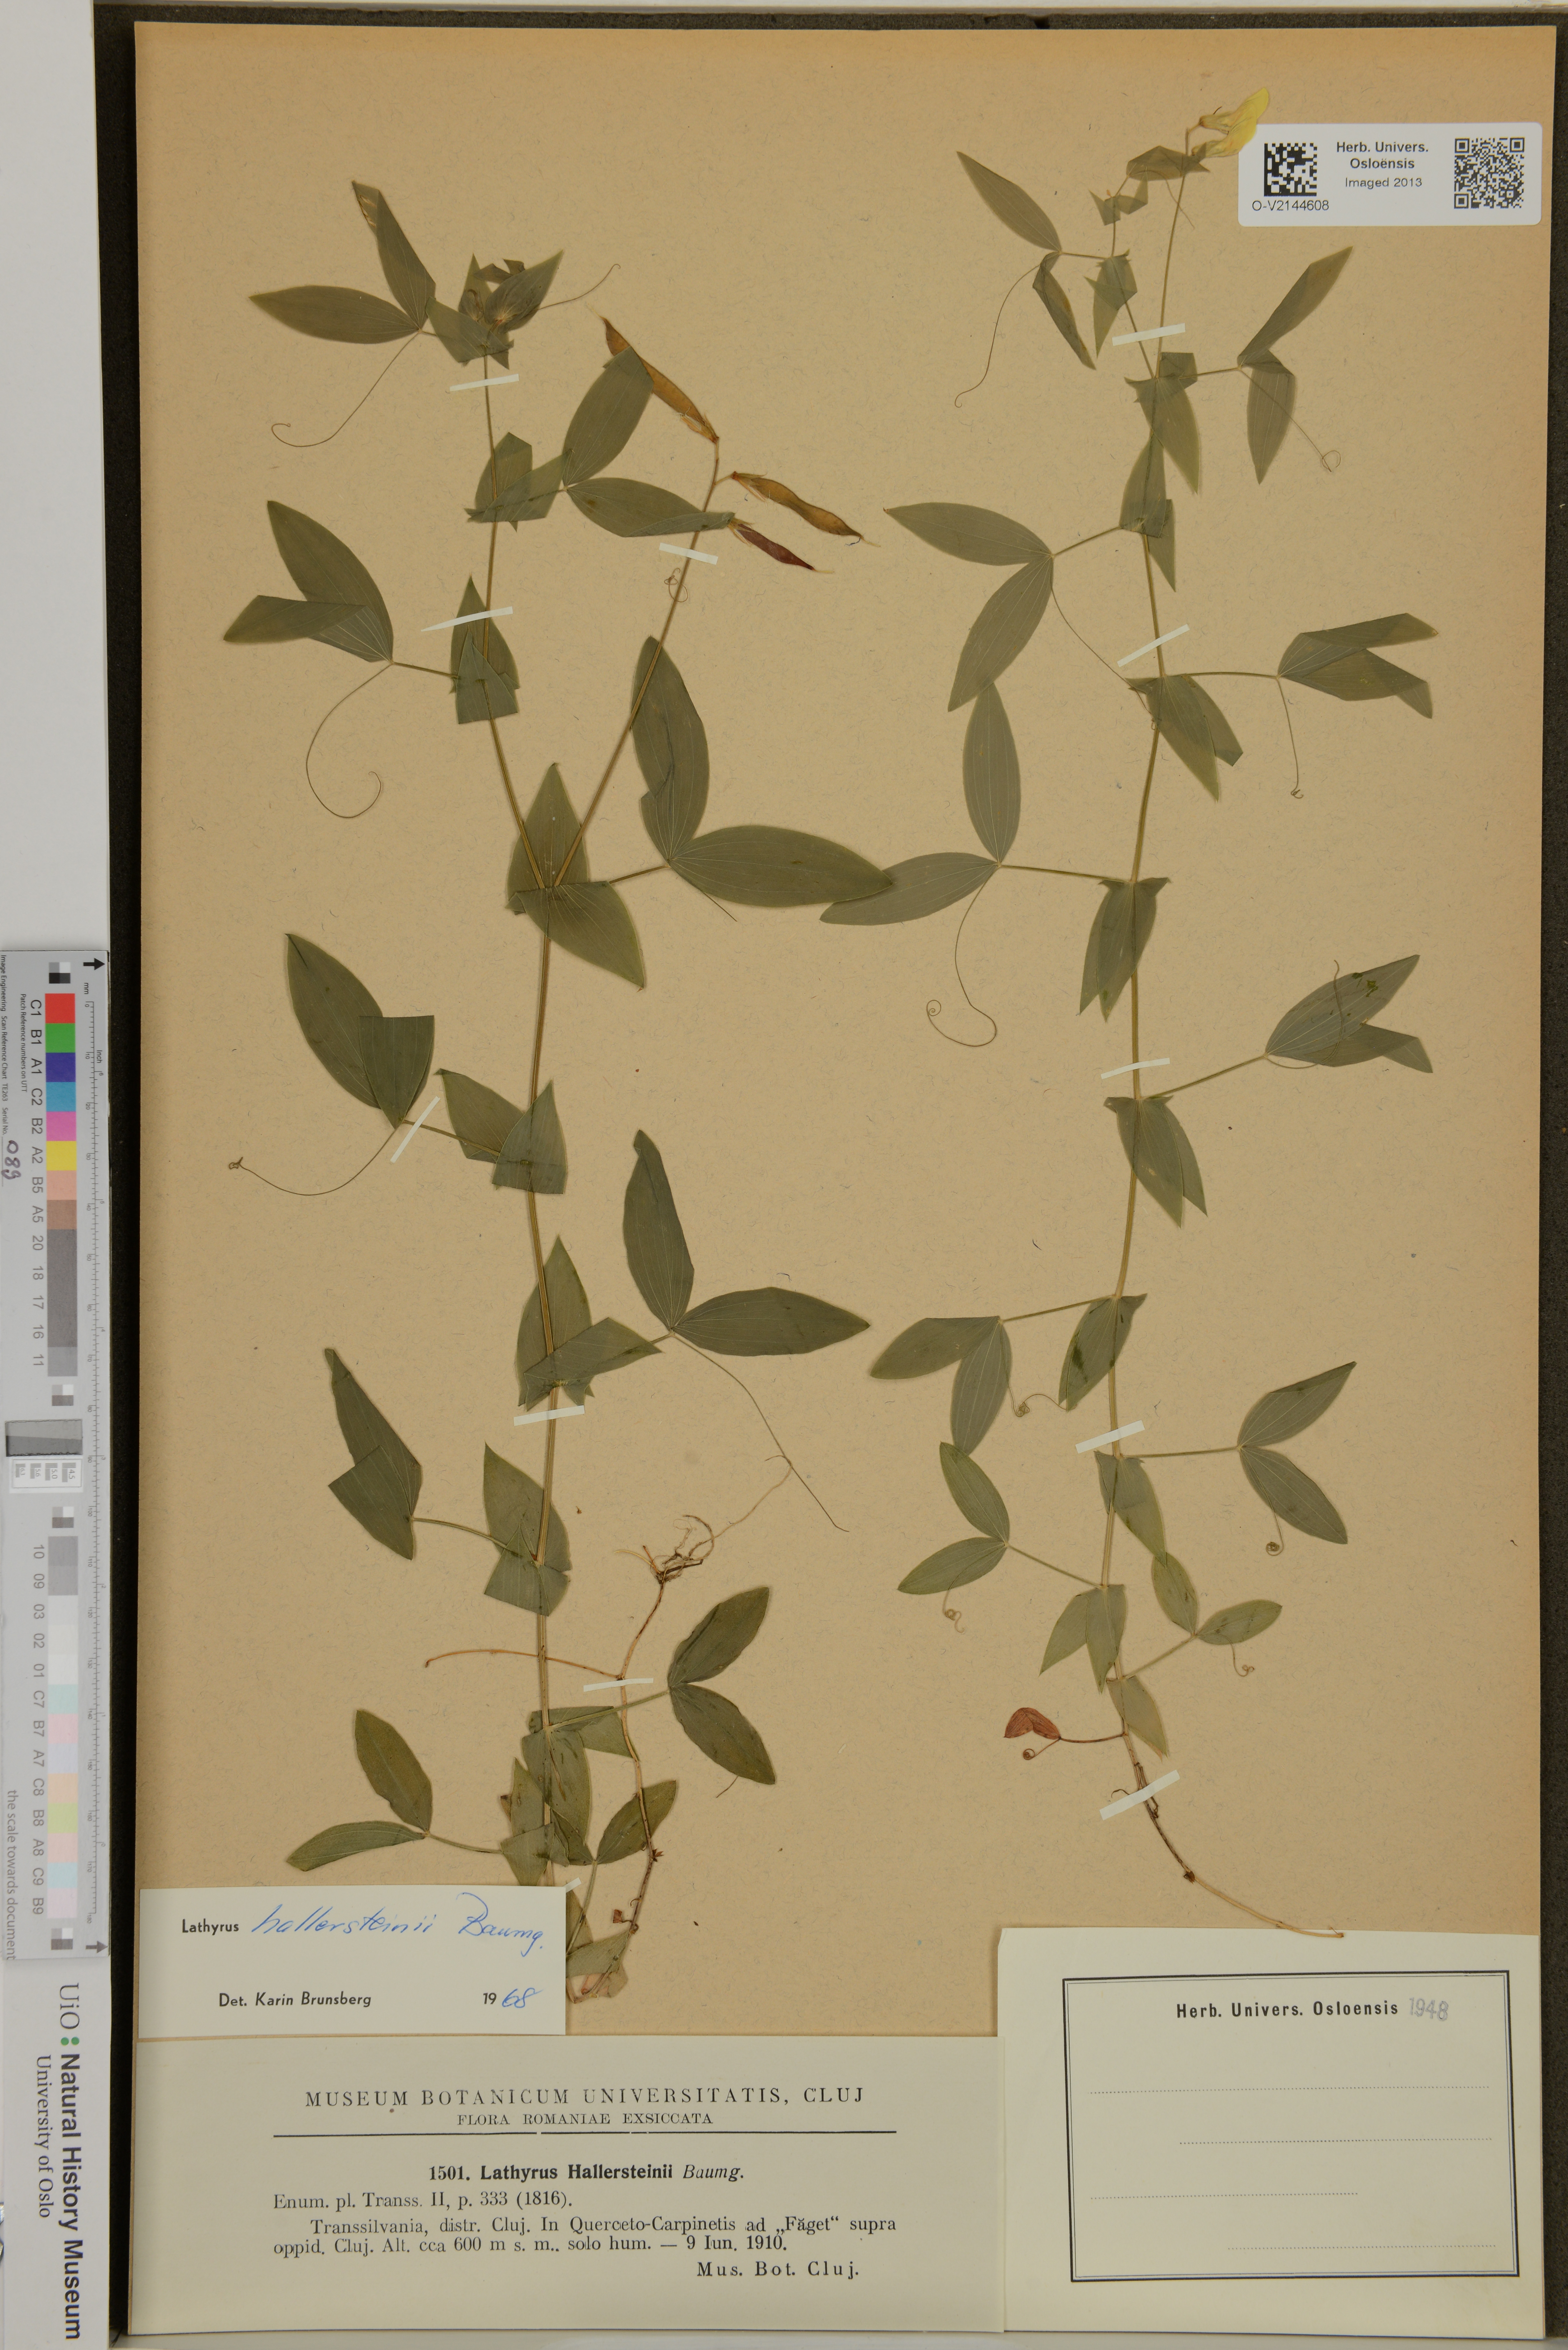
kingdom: Plantae
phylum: Tracheophyta
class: Magnoliopsida
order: Fabales
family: Fabaceae
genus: Lathyrus
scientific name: Lathyrus hallersteinii
